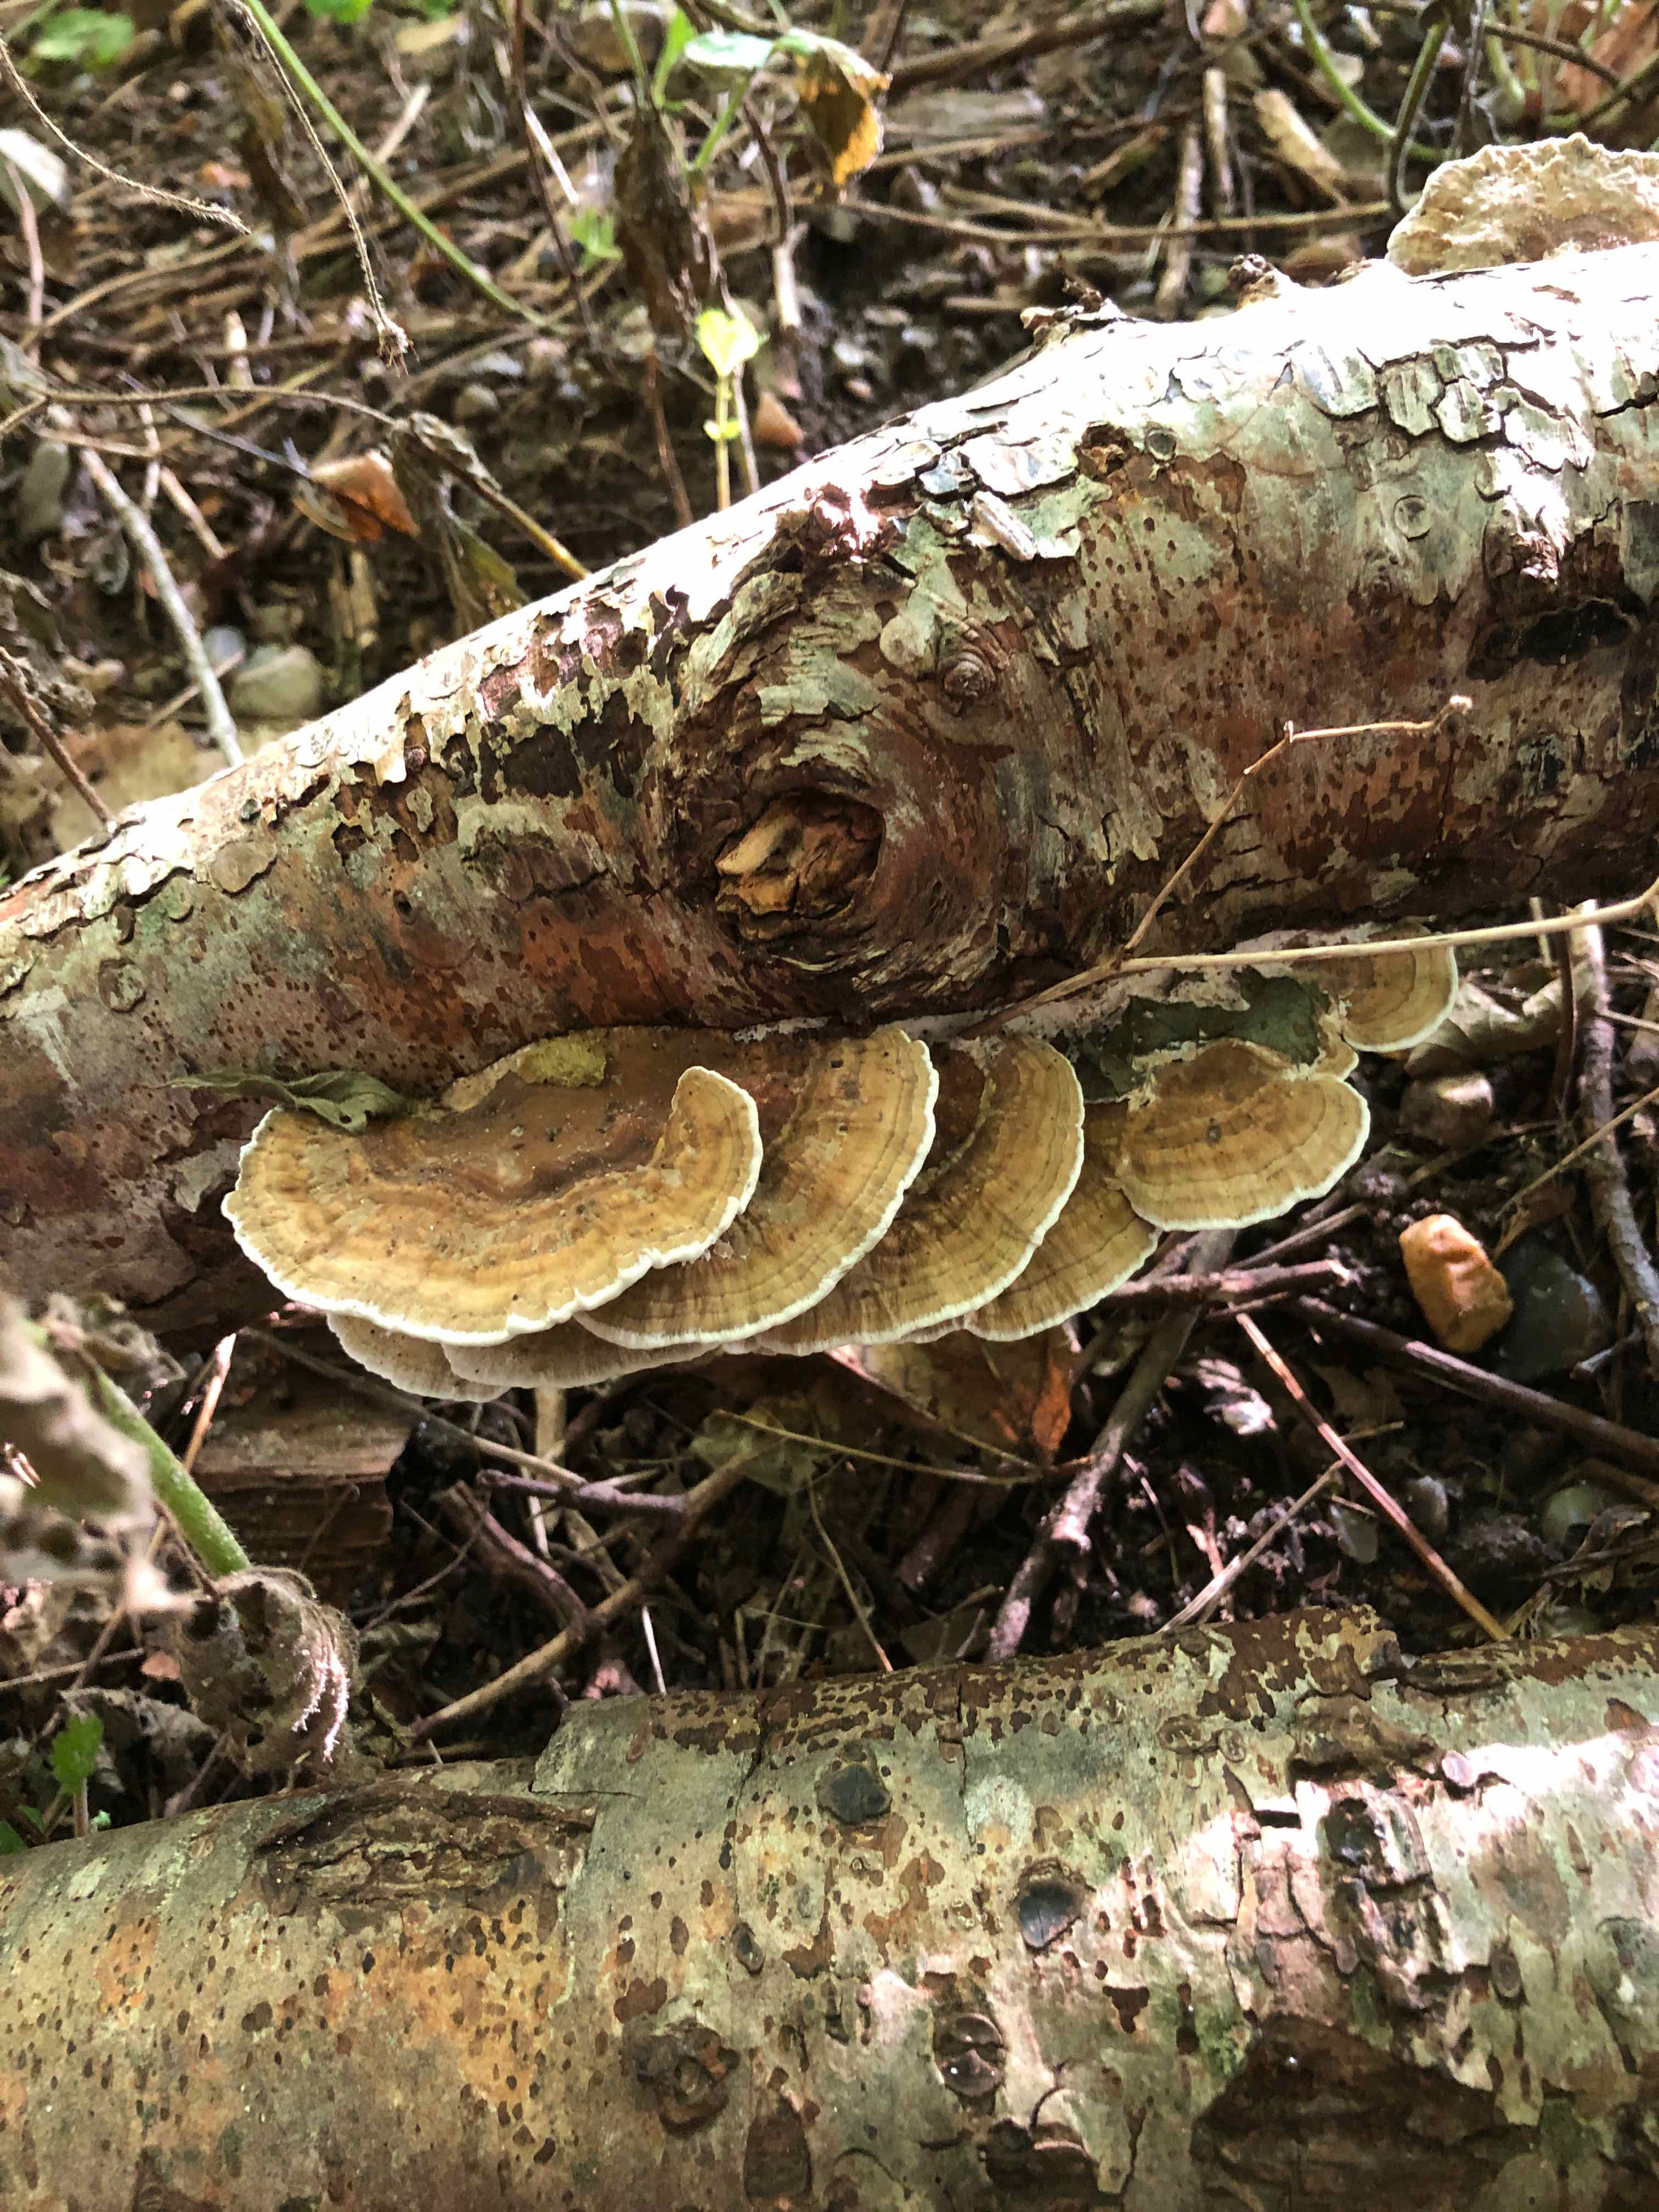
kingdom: Fungi
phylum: Basidiomycota
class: Agaricomycetes
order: Polyporales
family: Polyporaceae
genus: Daedaleopsis
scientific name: Daedaleopsis confragosa
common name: rødmende læderporesvamp
